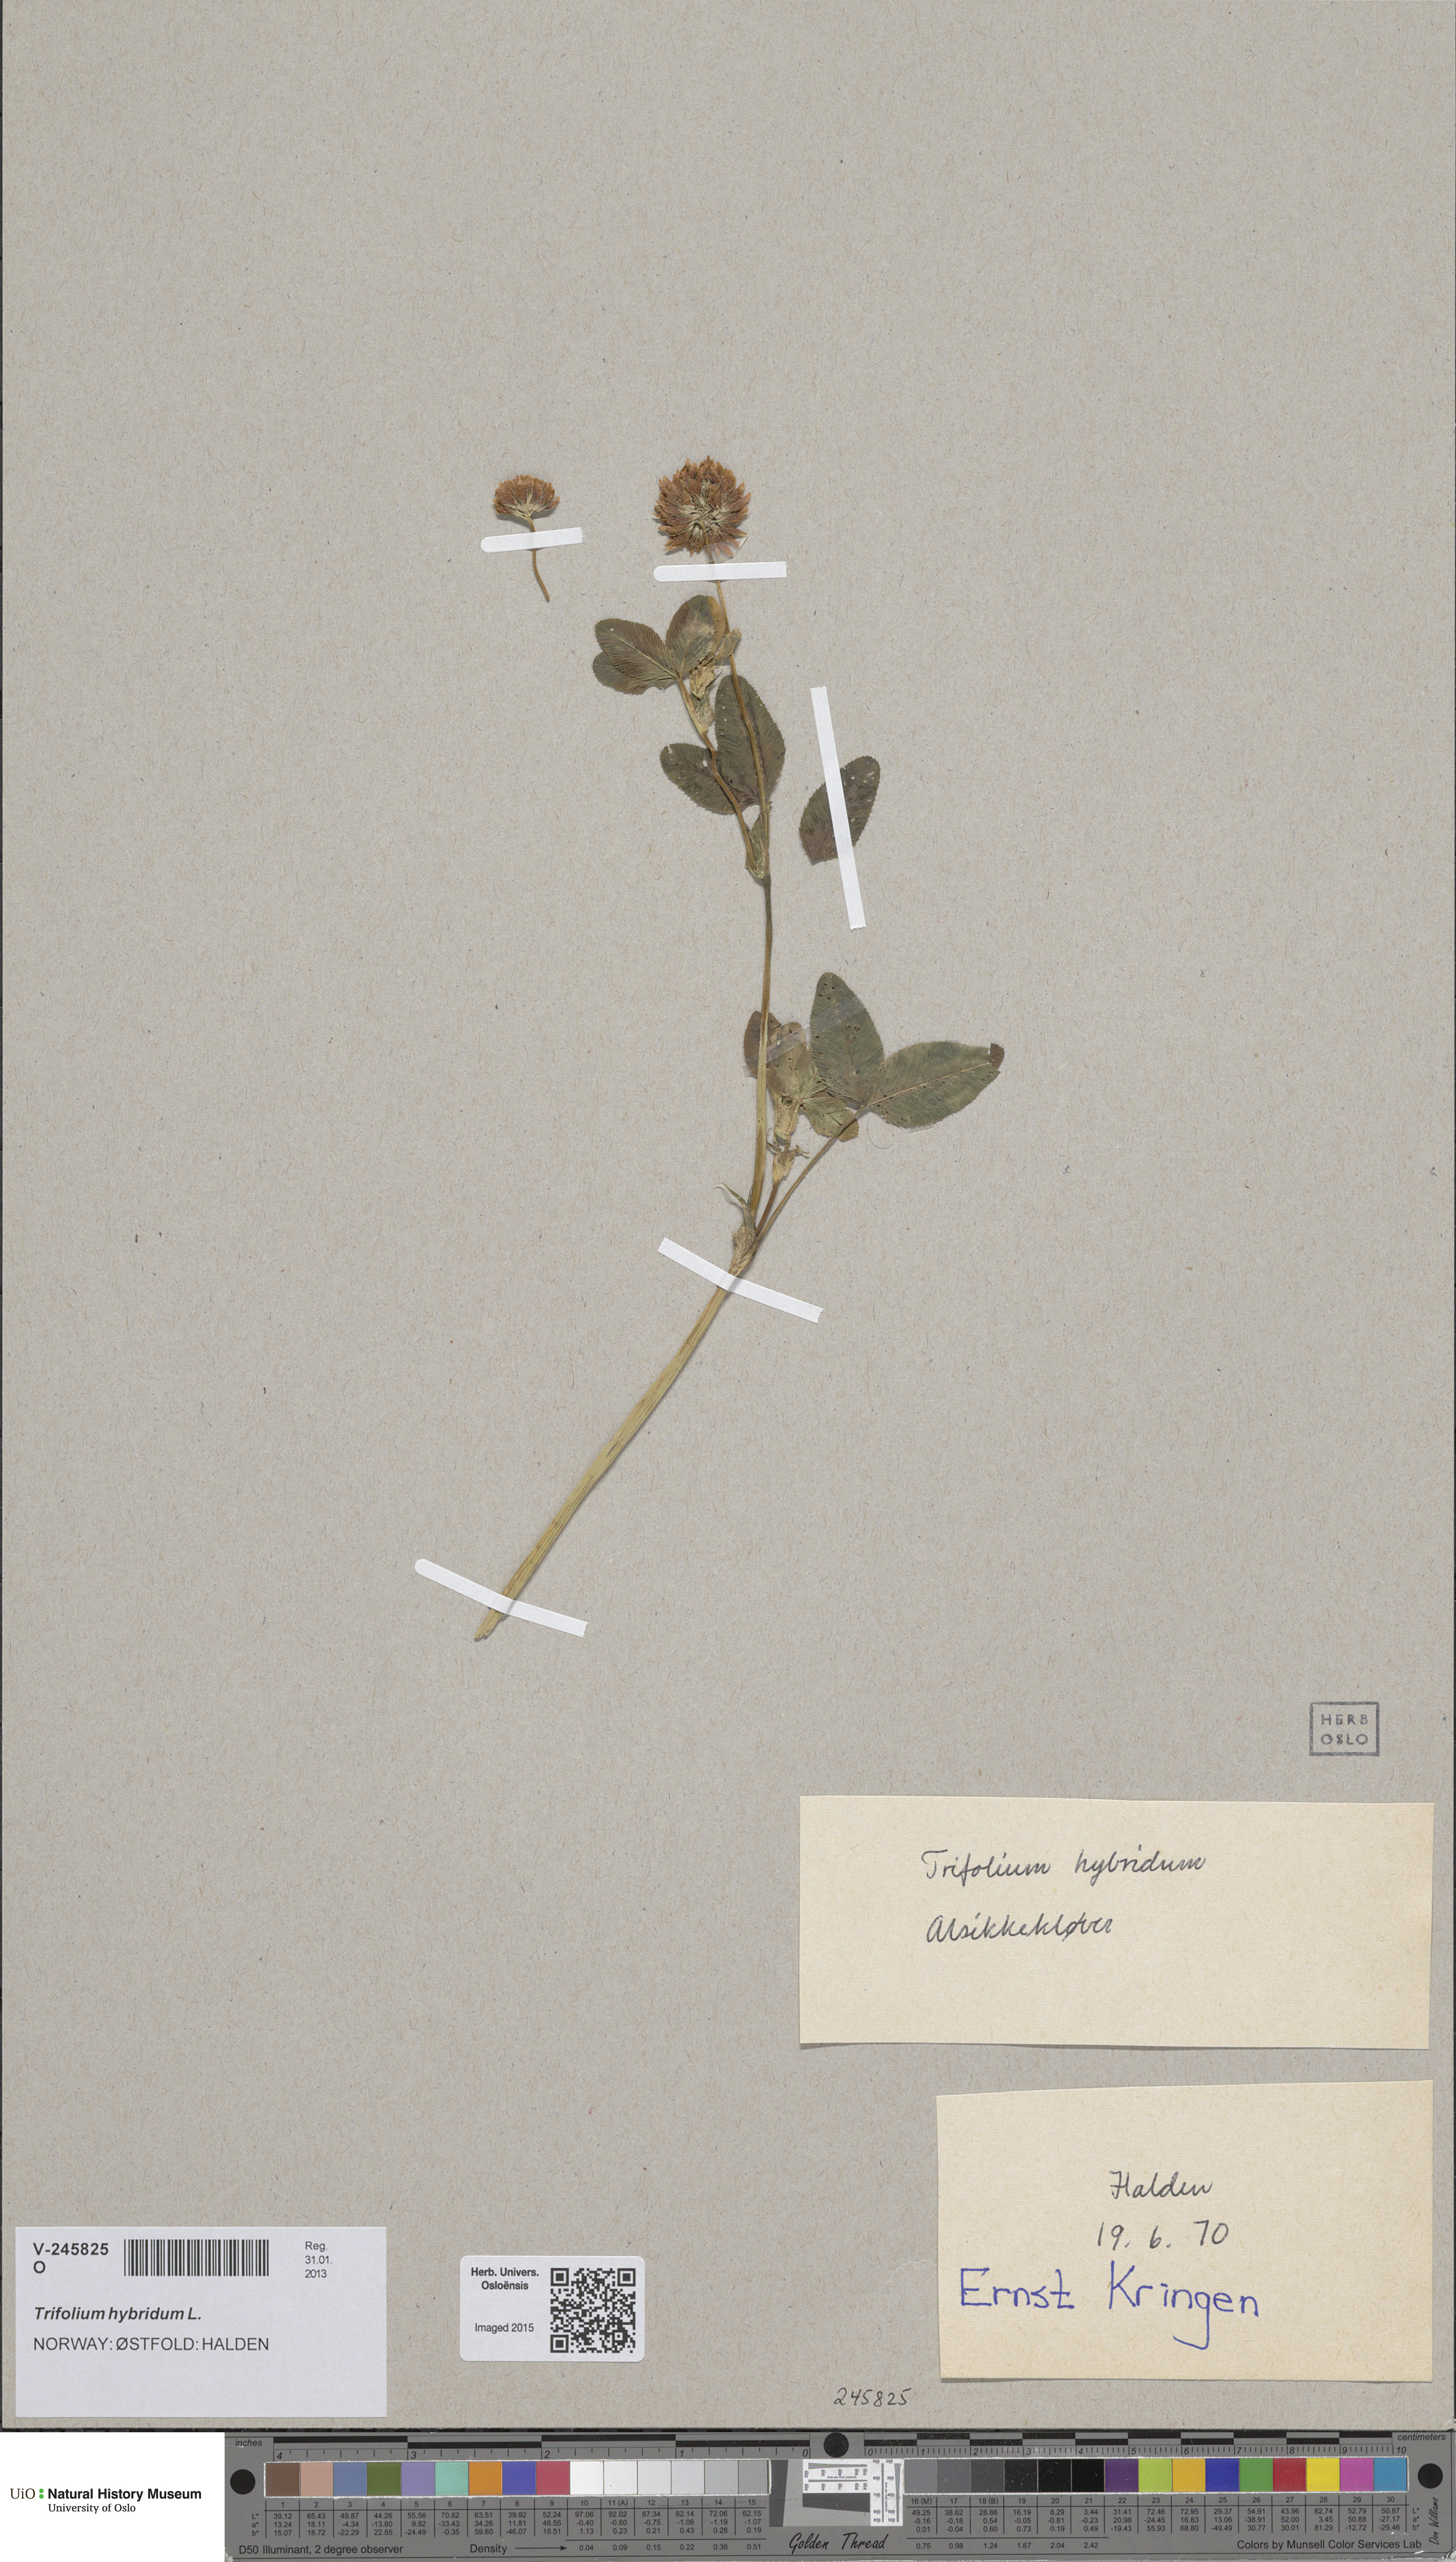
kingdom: Plantae
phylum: Tracheophyta
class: Magnoliopsida
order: Fabales
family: Fabaceae
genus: Trifolium
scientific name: Trifolium hybridum
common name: Alsike clover
